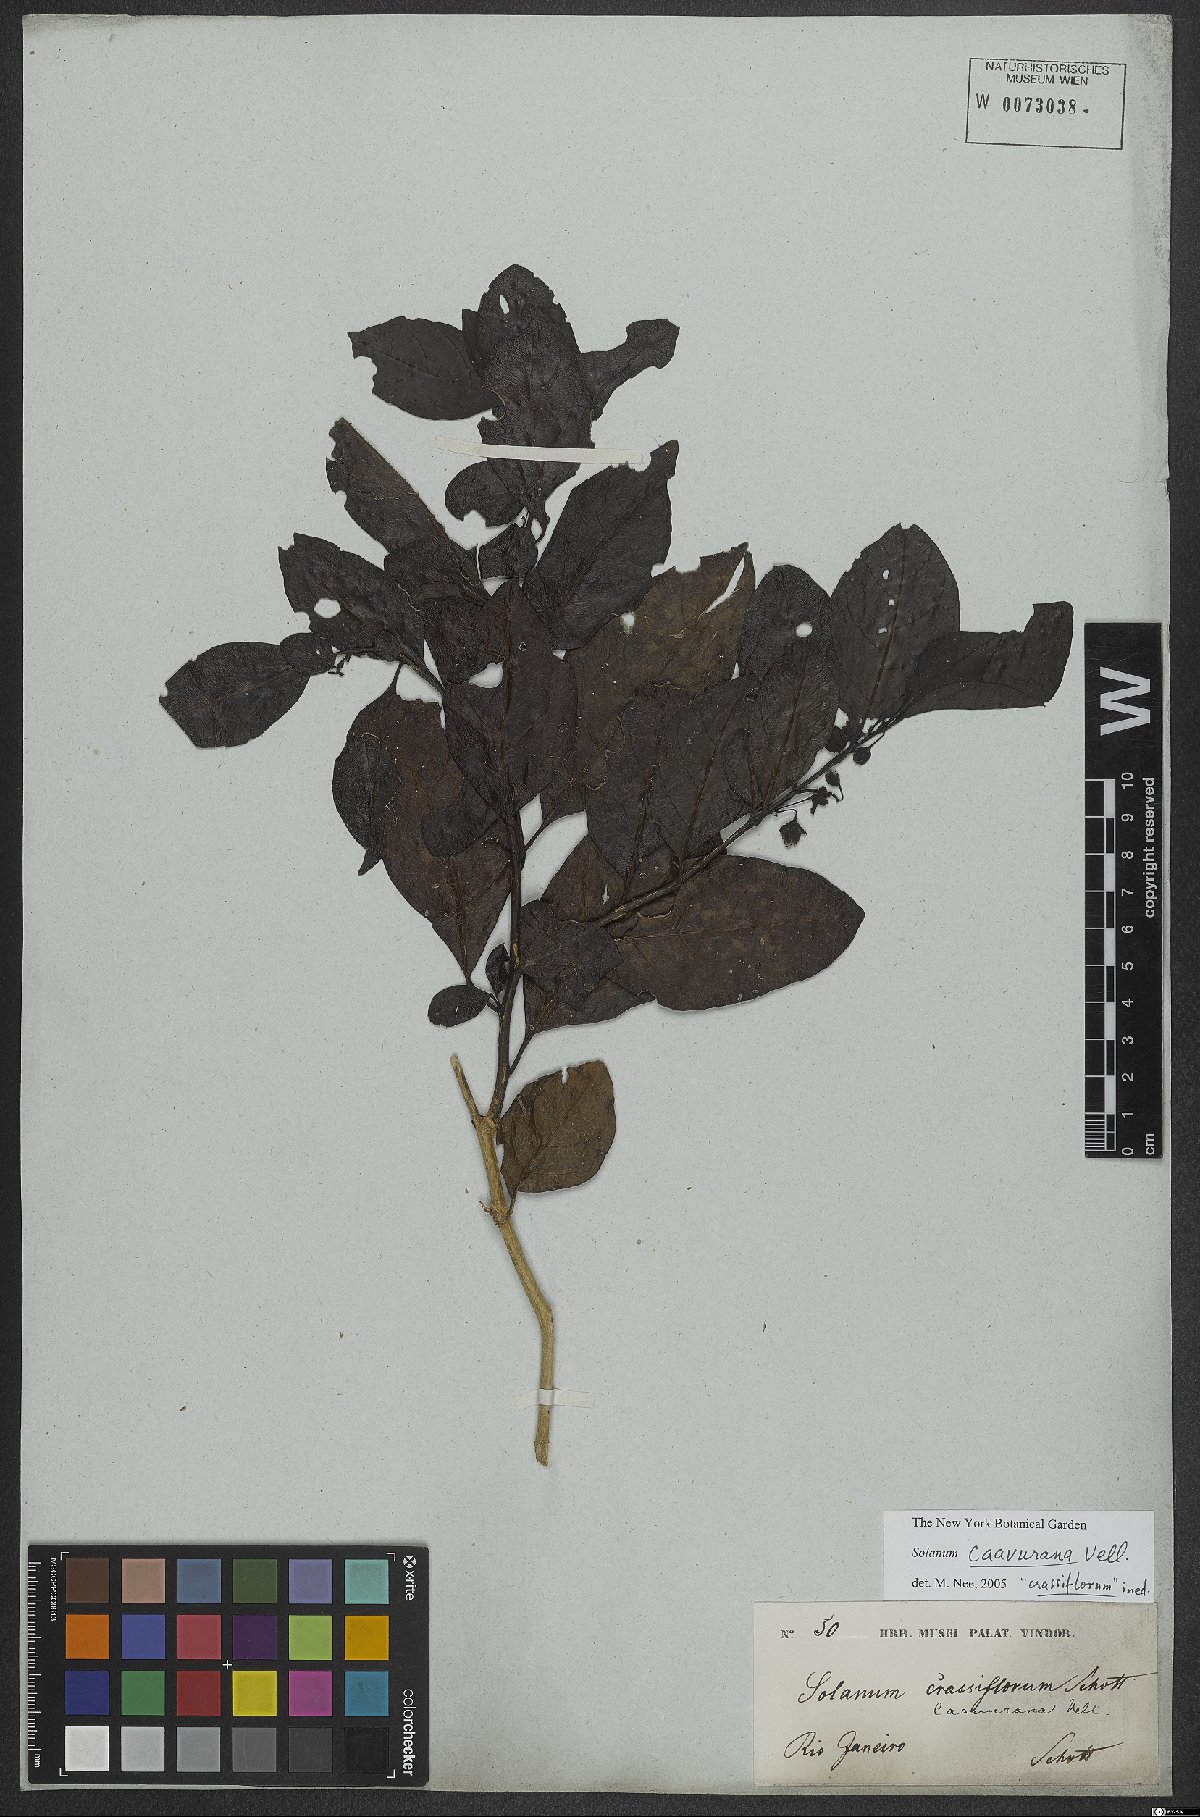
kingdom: Plantae
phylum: Tracheophyta
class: Magnoliopsida
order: Solanales
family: Solanaceae
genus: Solanum
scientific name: Solanum caavurana
